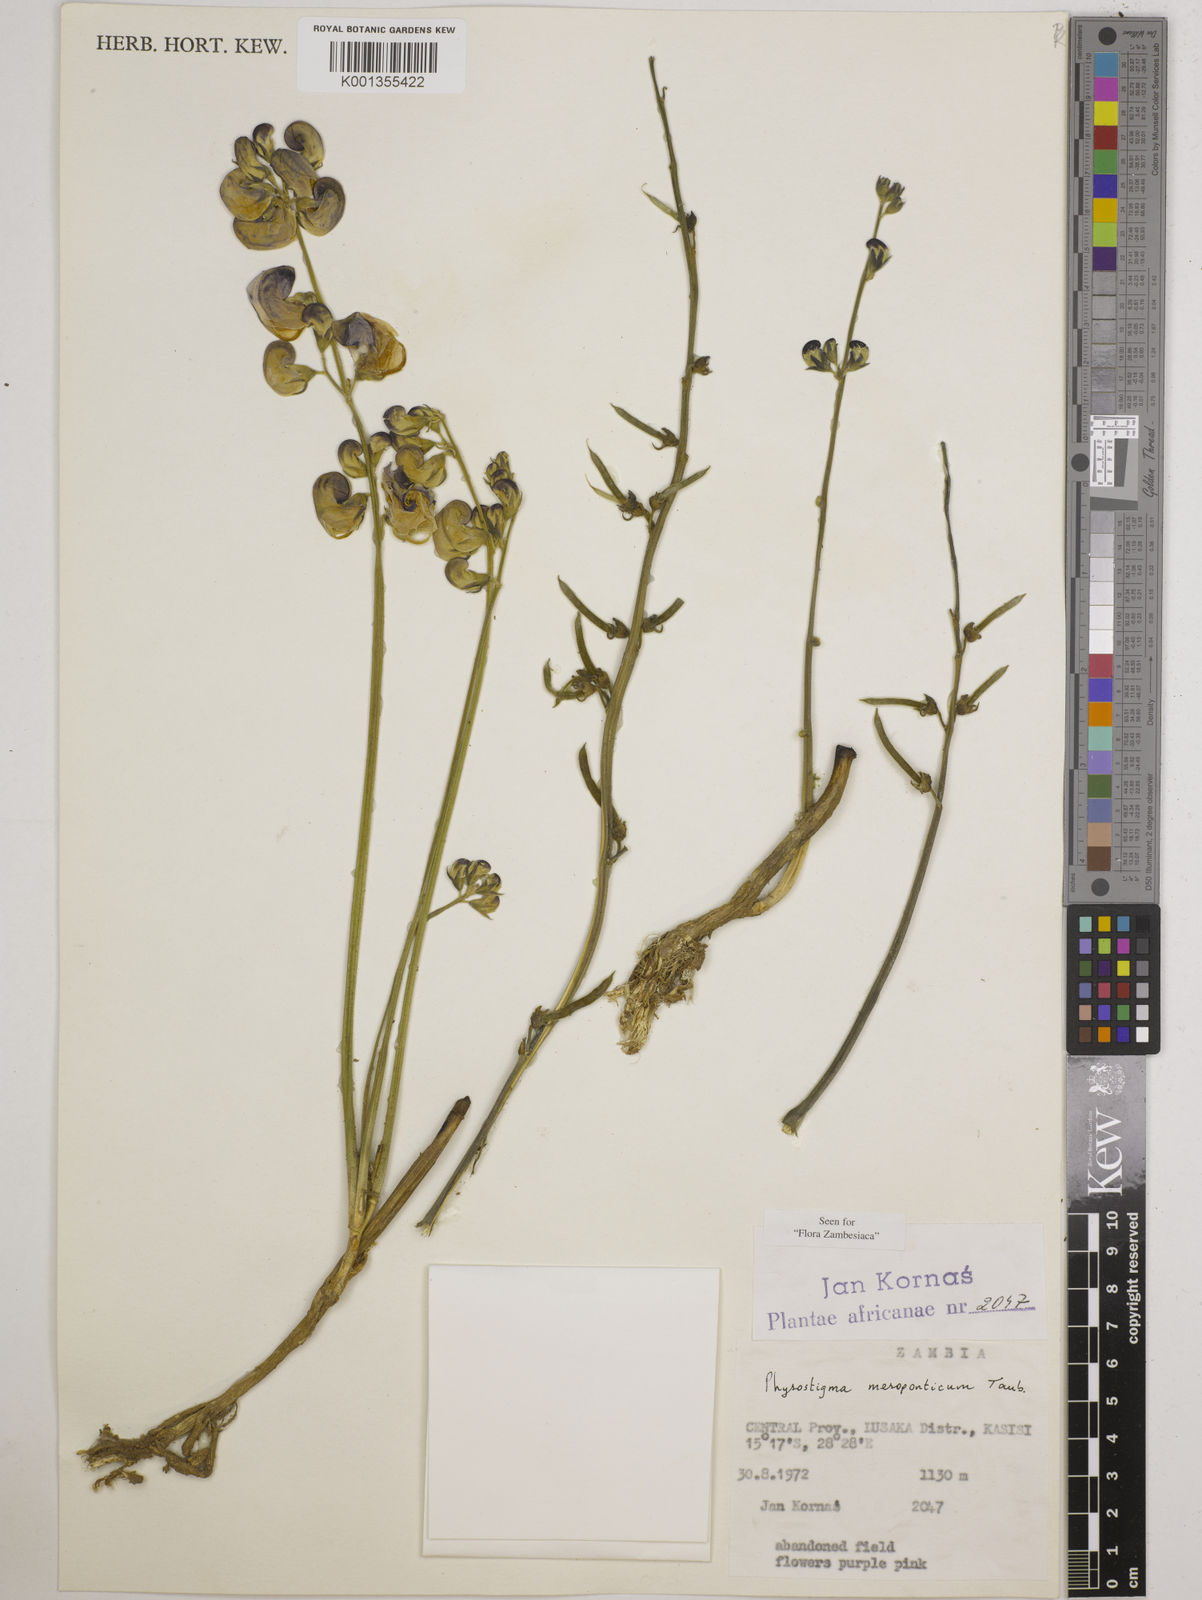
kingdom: Plantae
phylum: Tracheophyta
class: Magnoliopsida
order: Fabales
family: Fabaceae
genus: Physostigma
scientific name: Physostigma mesoponticum
